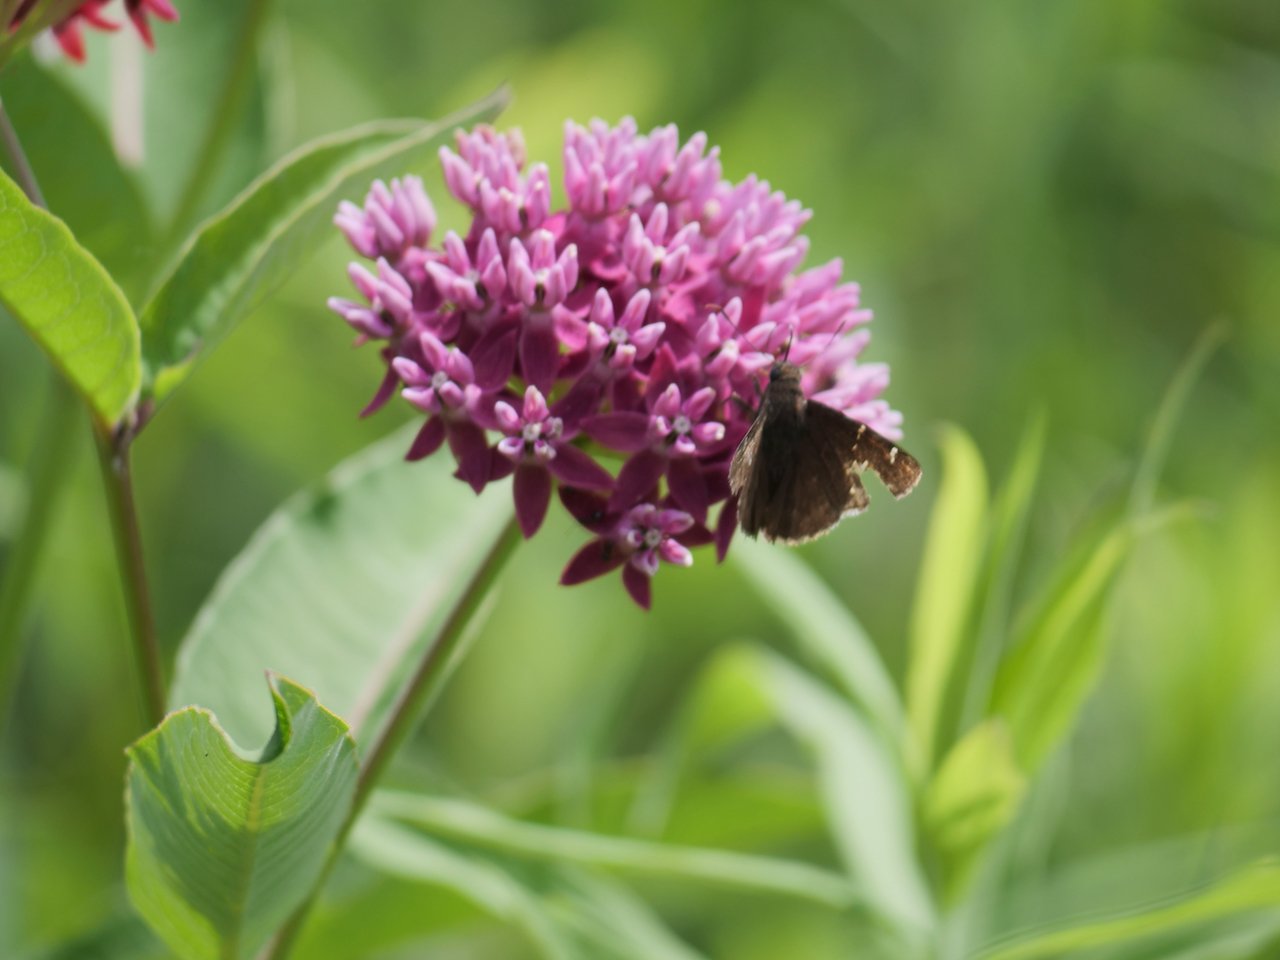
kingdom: Animalia
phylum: Arthropoda
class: Insecta
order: Lepidoptera
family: Hesperiidae
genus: Autochton
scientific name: Autochton
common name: Northern Cloudywing
